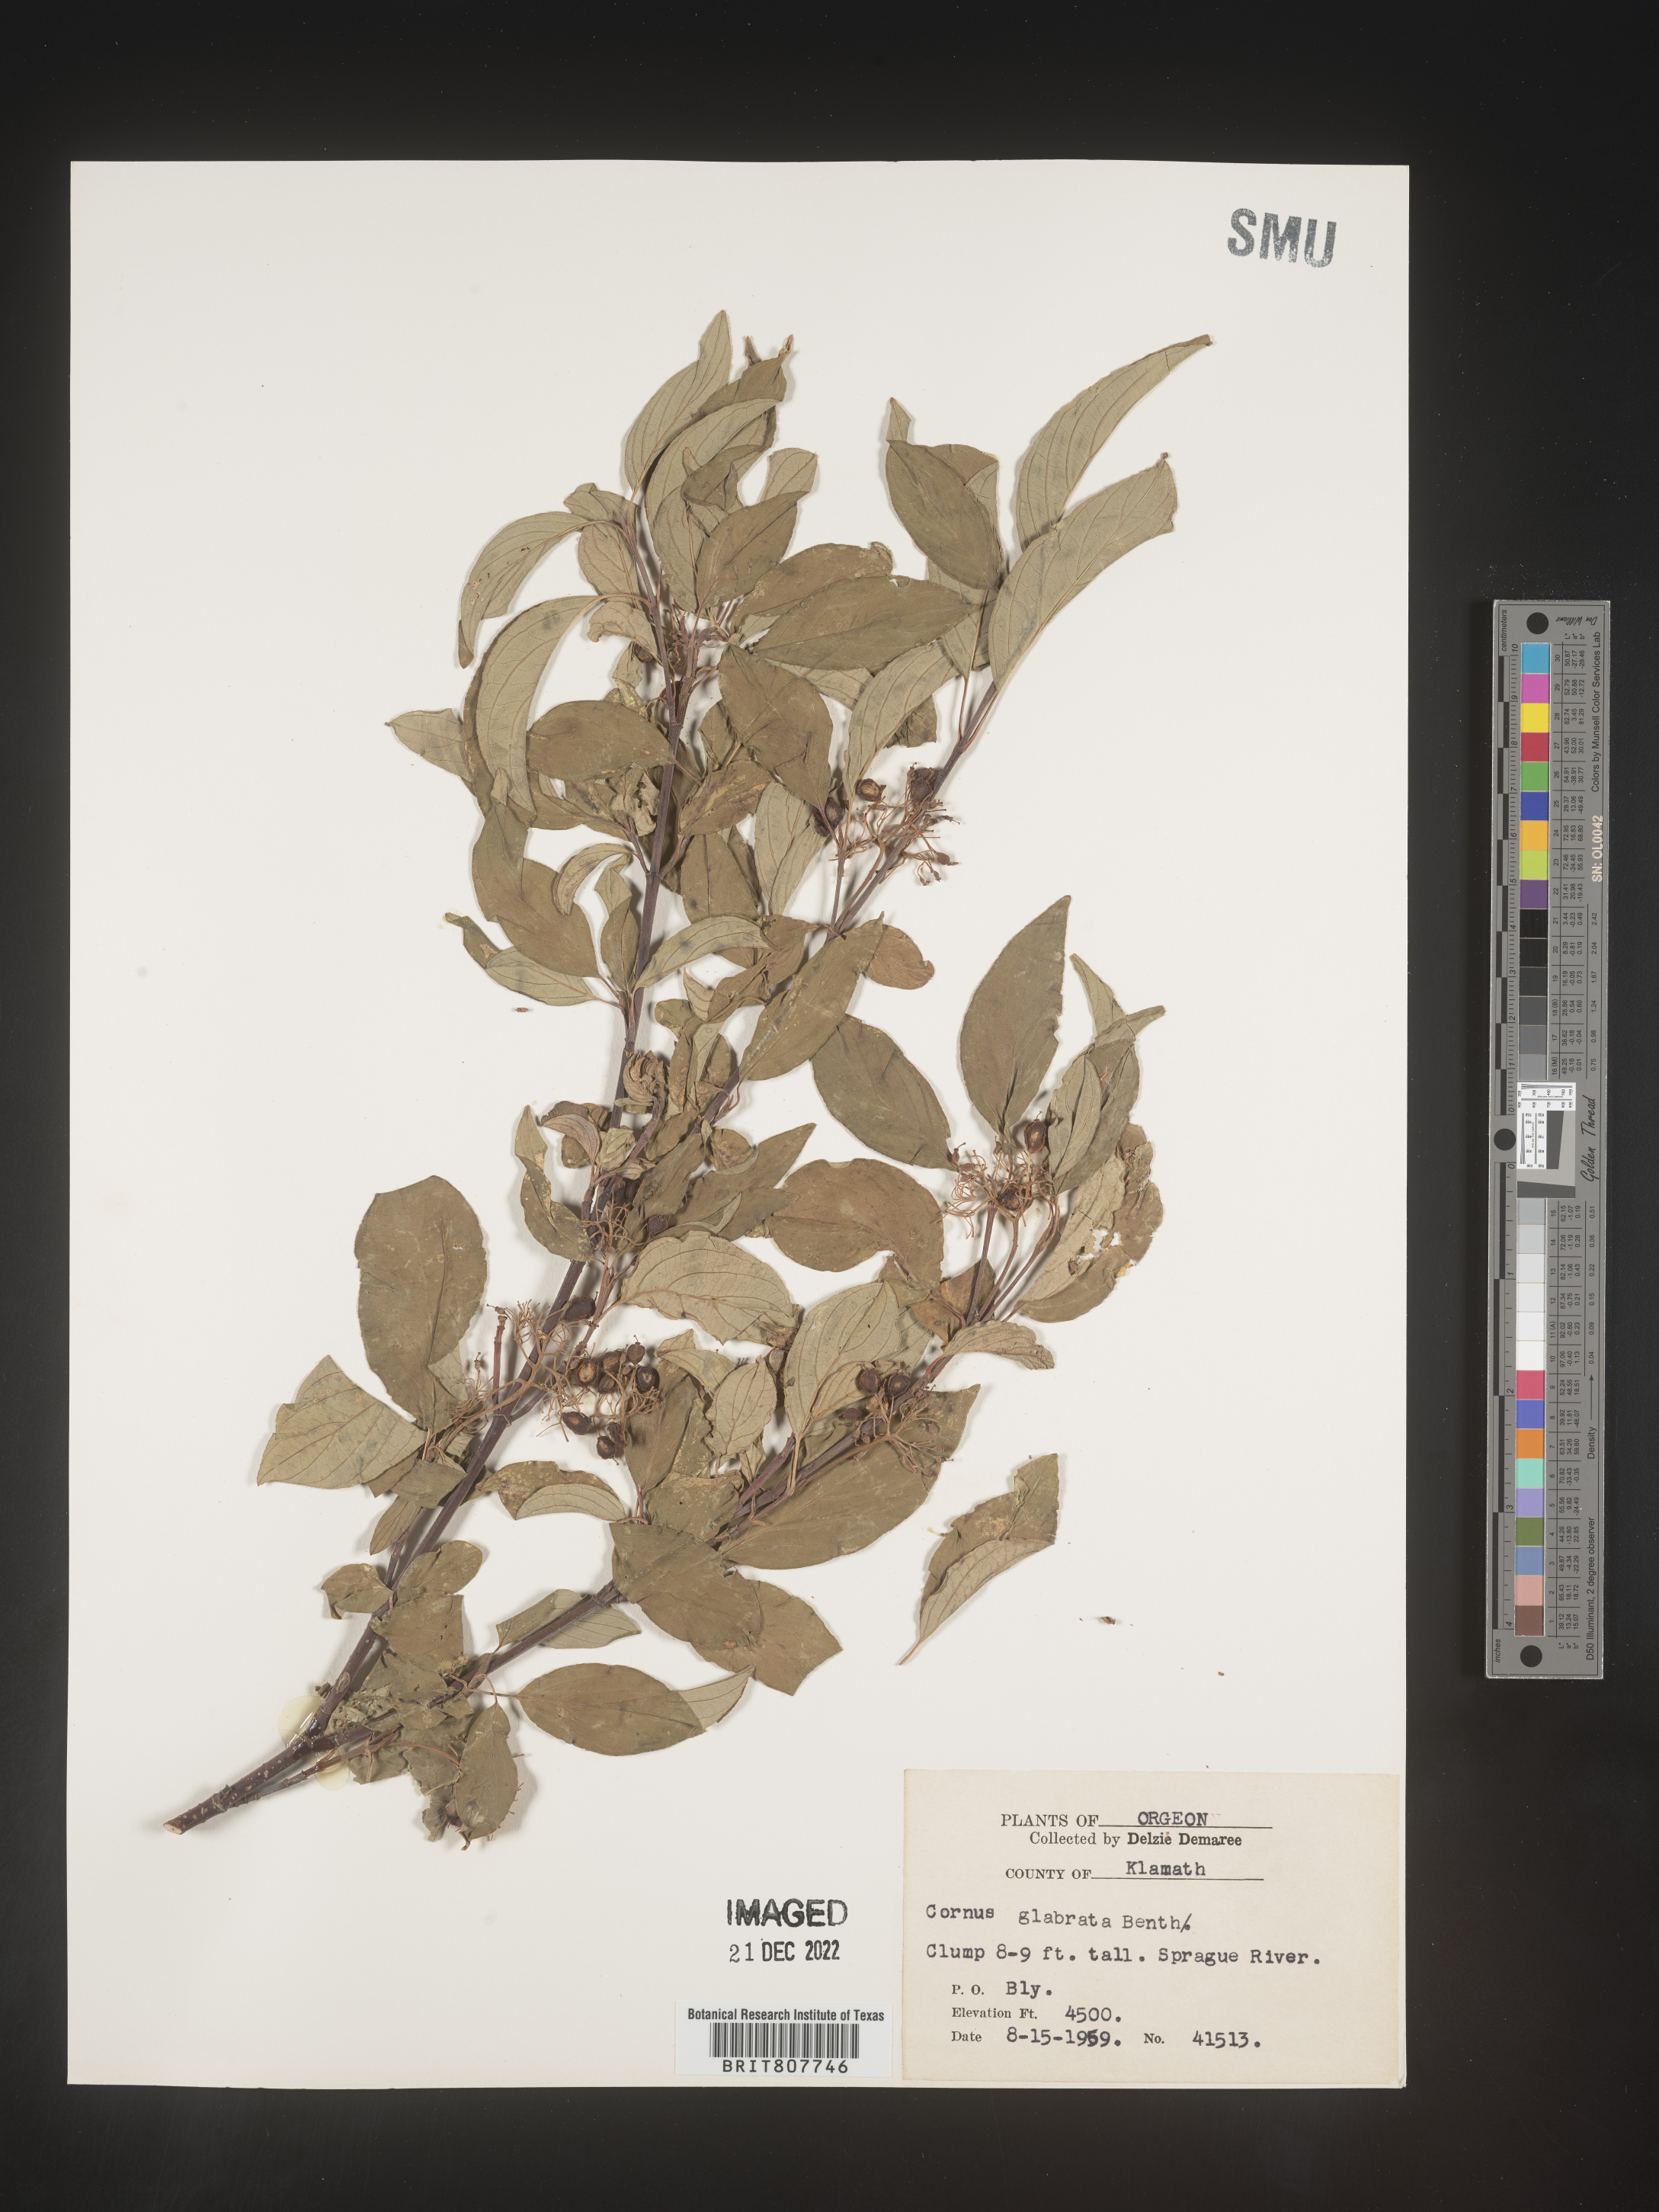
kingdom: Plantae
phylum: Tracheophyta
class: Magnoliopsida
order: Cornales
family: Cornaceae
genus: Cornus
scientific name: Cornus glabrata
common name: Smooth dogwood
